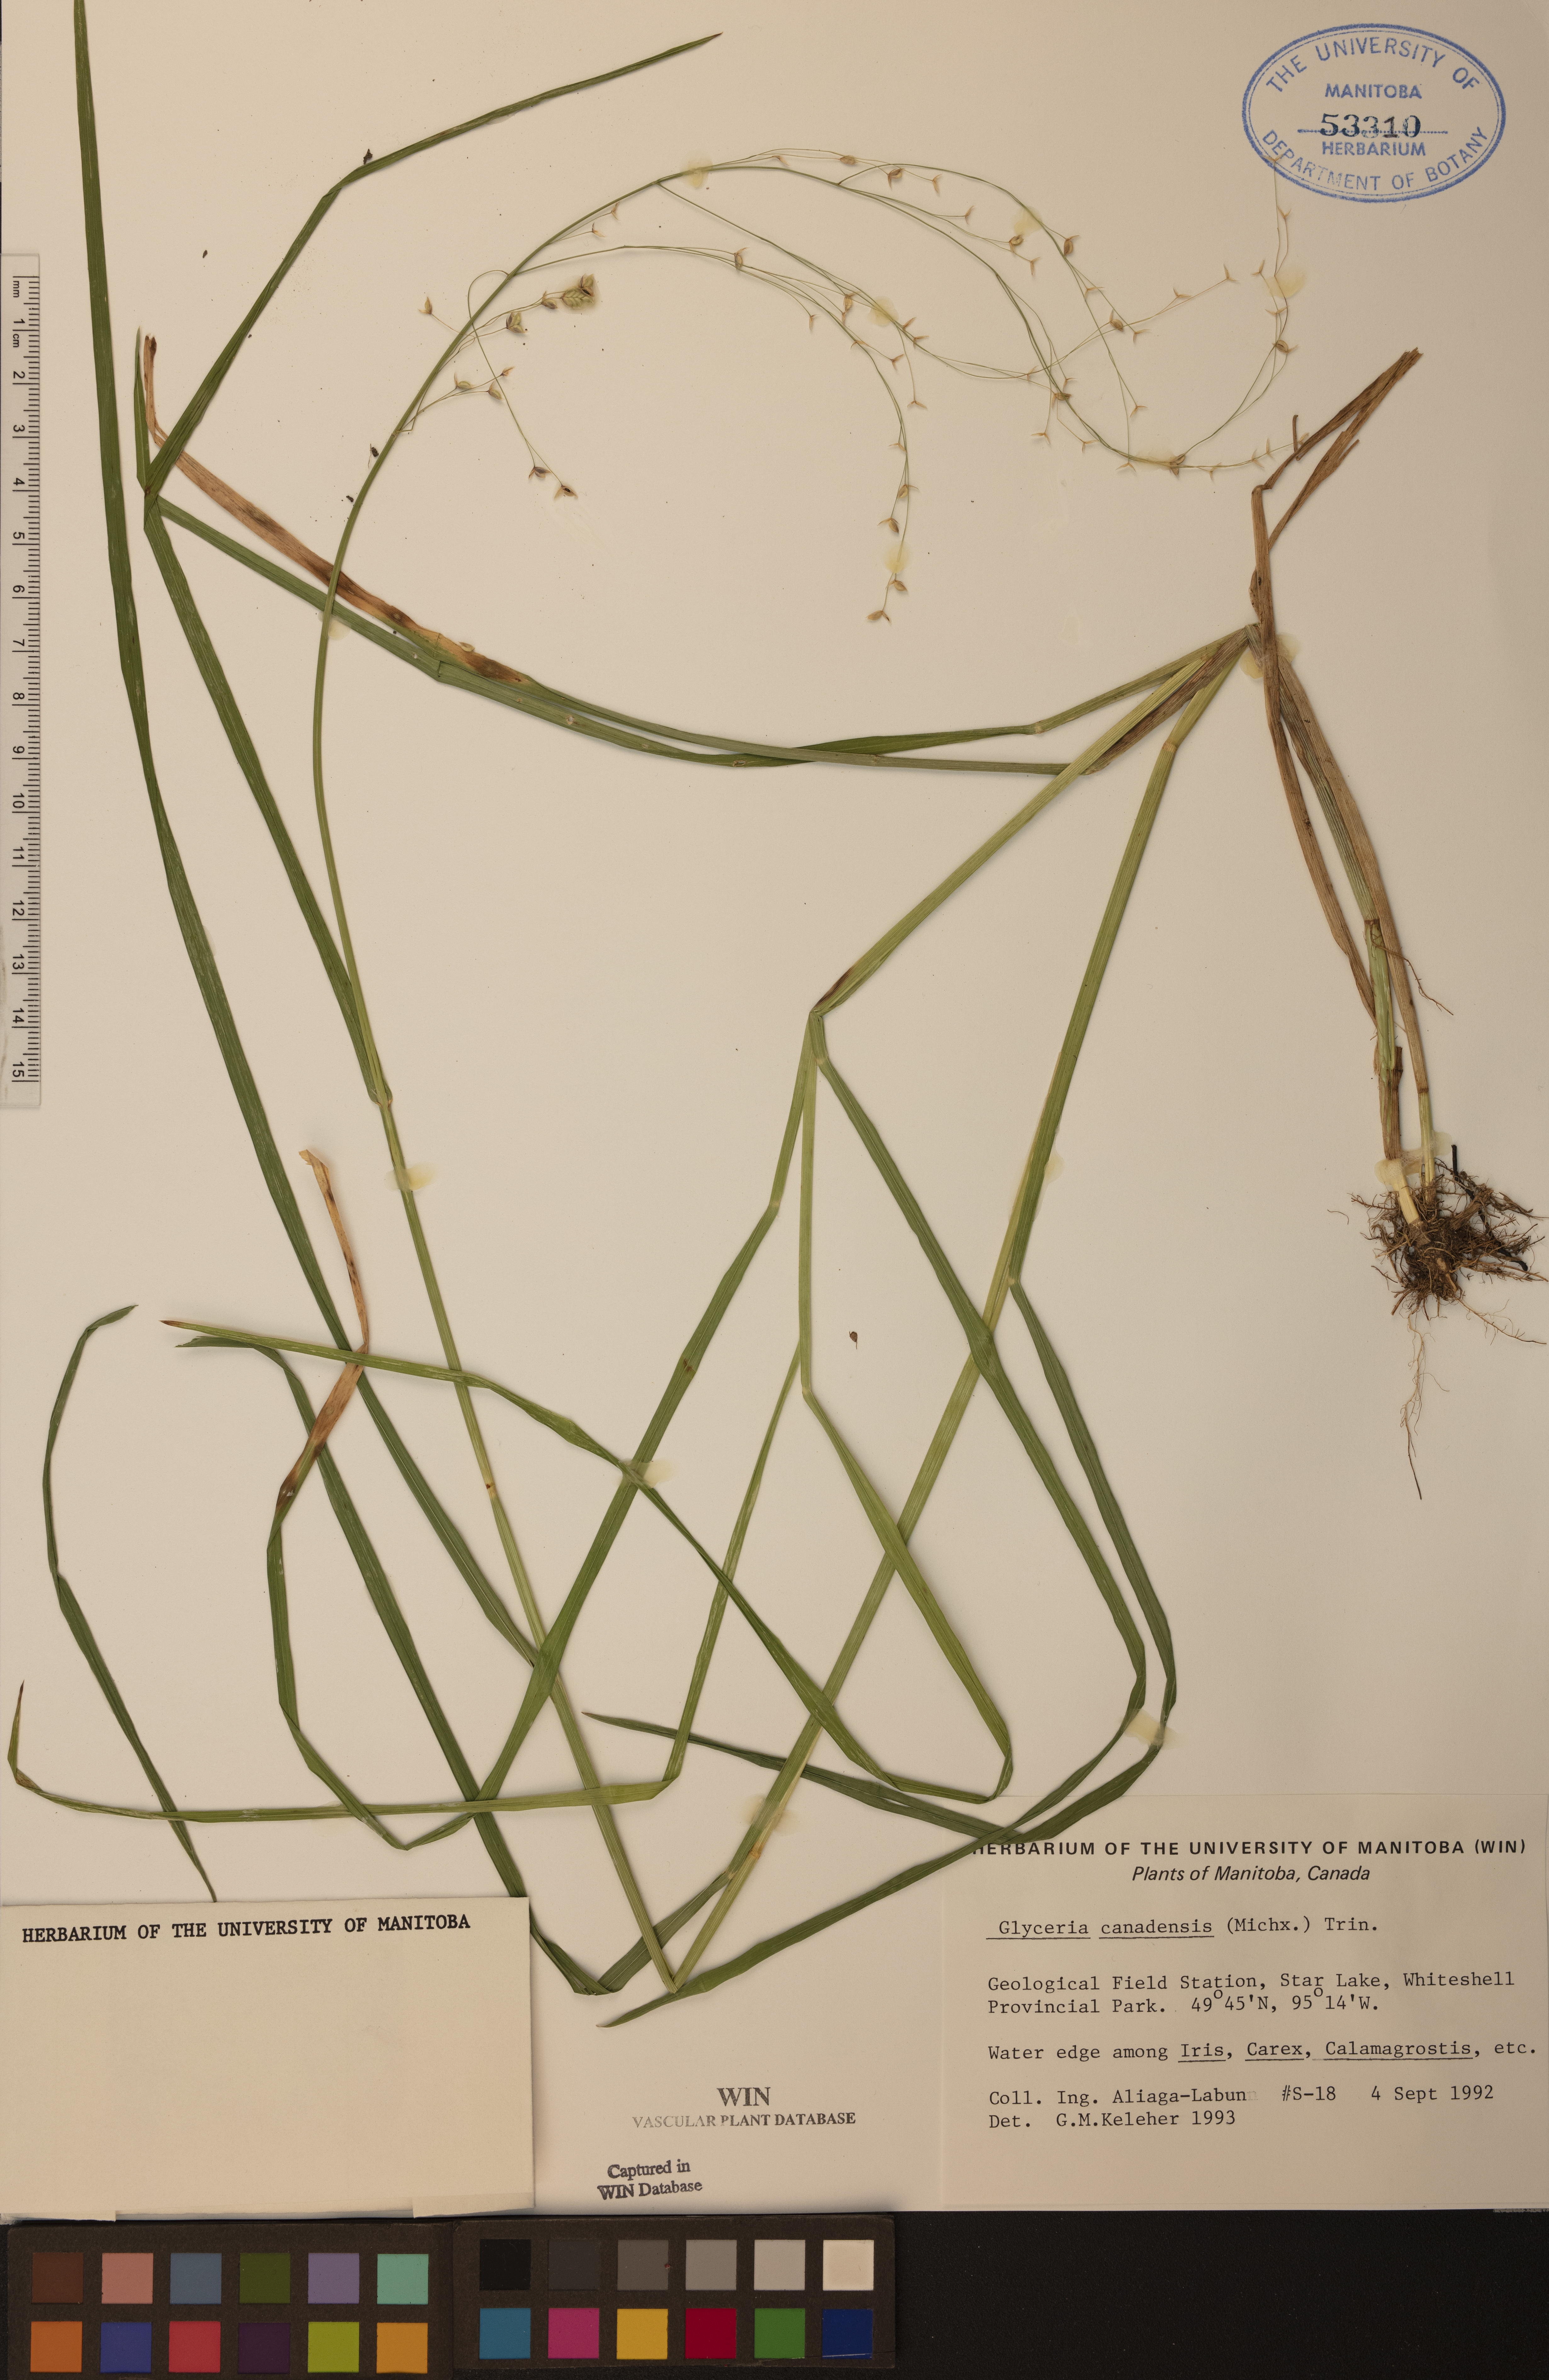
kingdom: Plantae
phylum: Tracheophyta
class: Liliopsida
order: Poales
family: Poaceae
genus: Glyceria
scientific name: Glyceria canadensis
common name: Canada mannagrass
